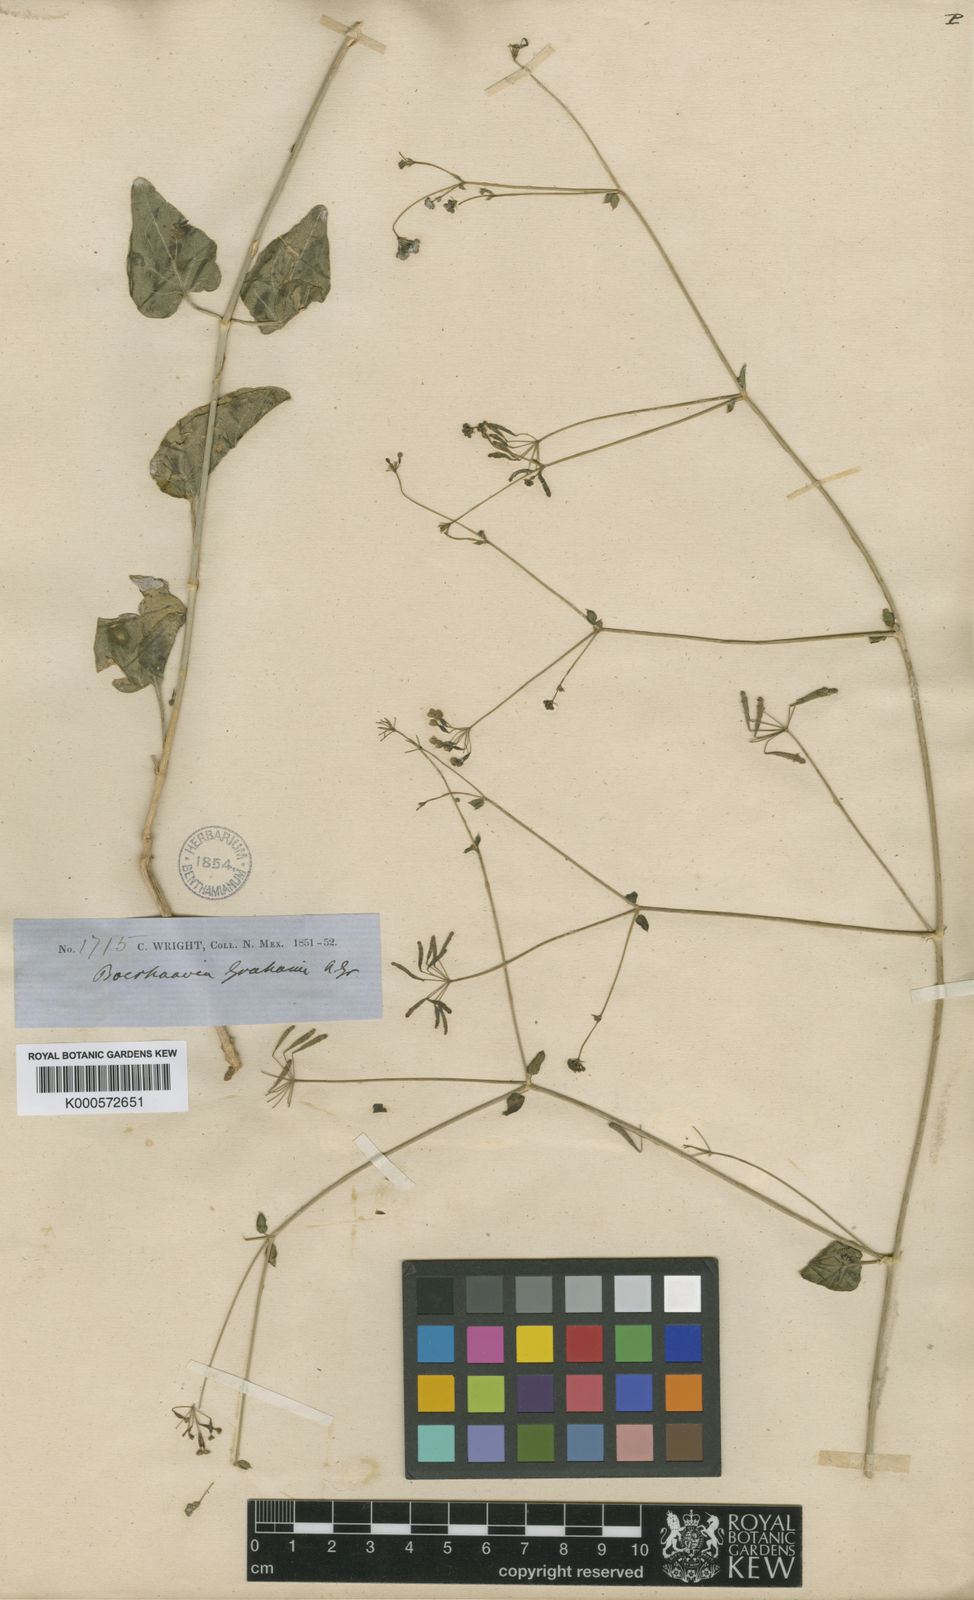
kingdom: Plantae
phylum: Tracheophyta
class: Magnoliopsida
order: Caryophyllales
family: Nyctaginaceae
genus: Boerhavia
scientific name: Boerhavia
